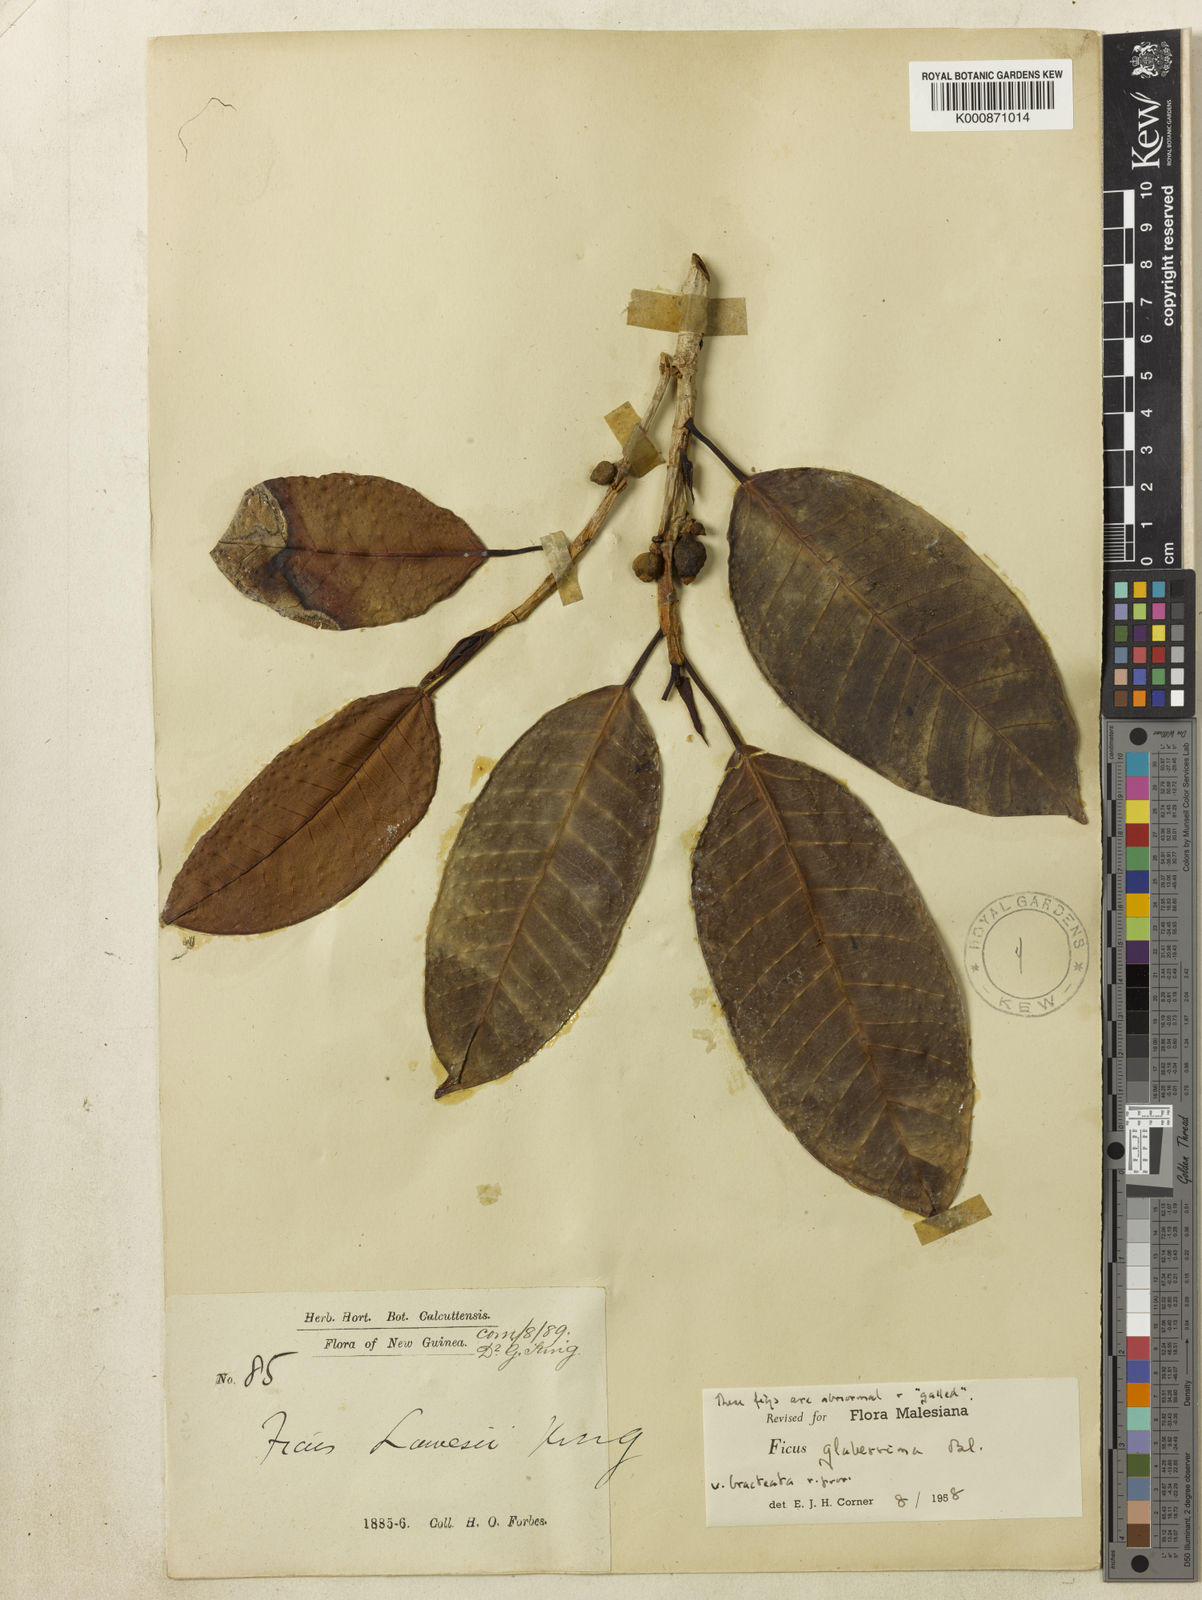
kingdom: Plantae
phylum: Tracheophyta
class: Magnoliopsida
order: Rosales
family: Moraceae
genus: Ficus
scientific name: Ficus glaberrima
